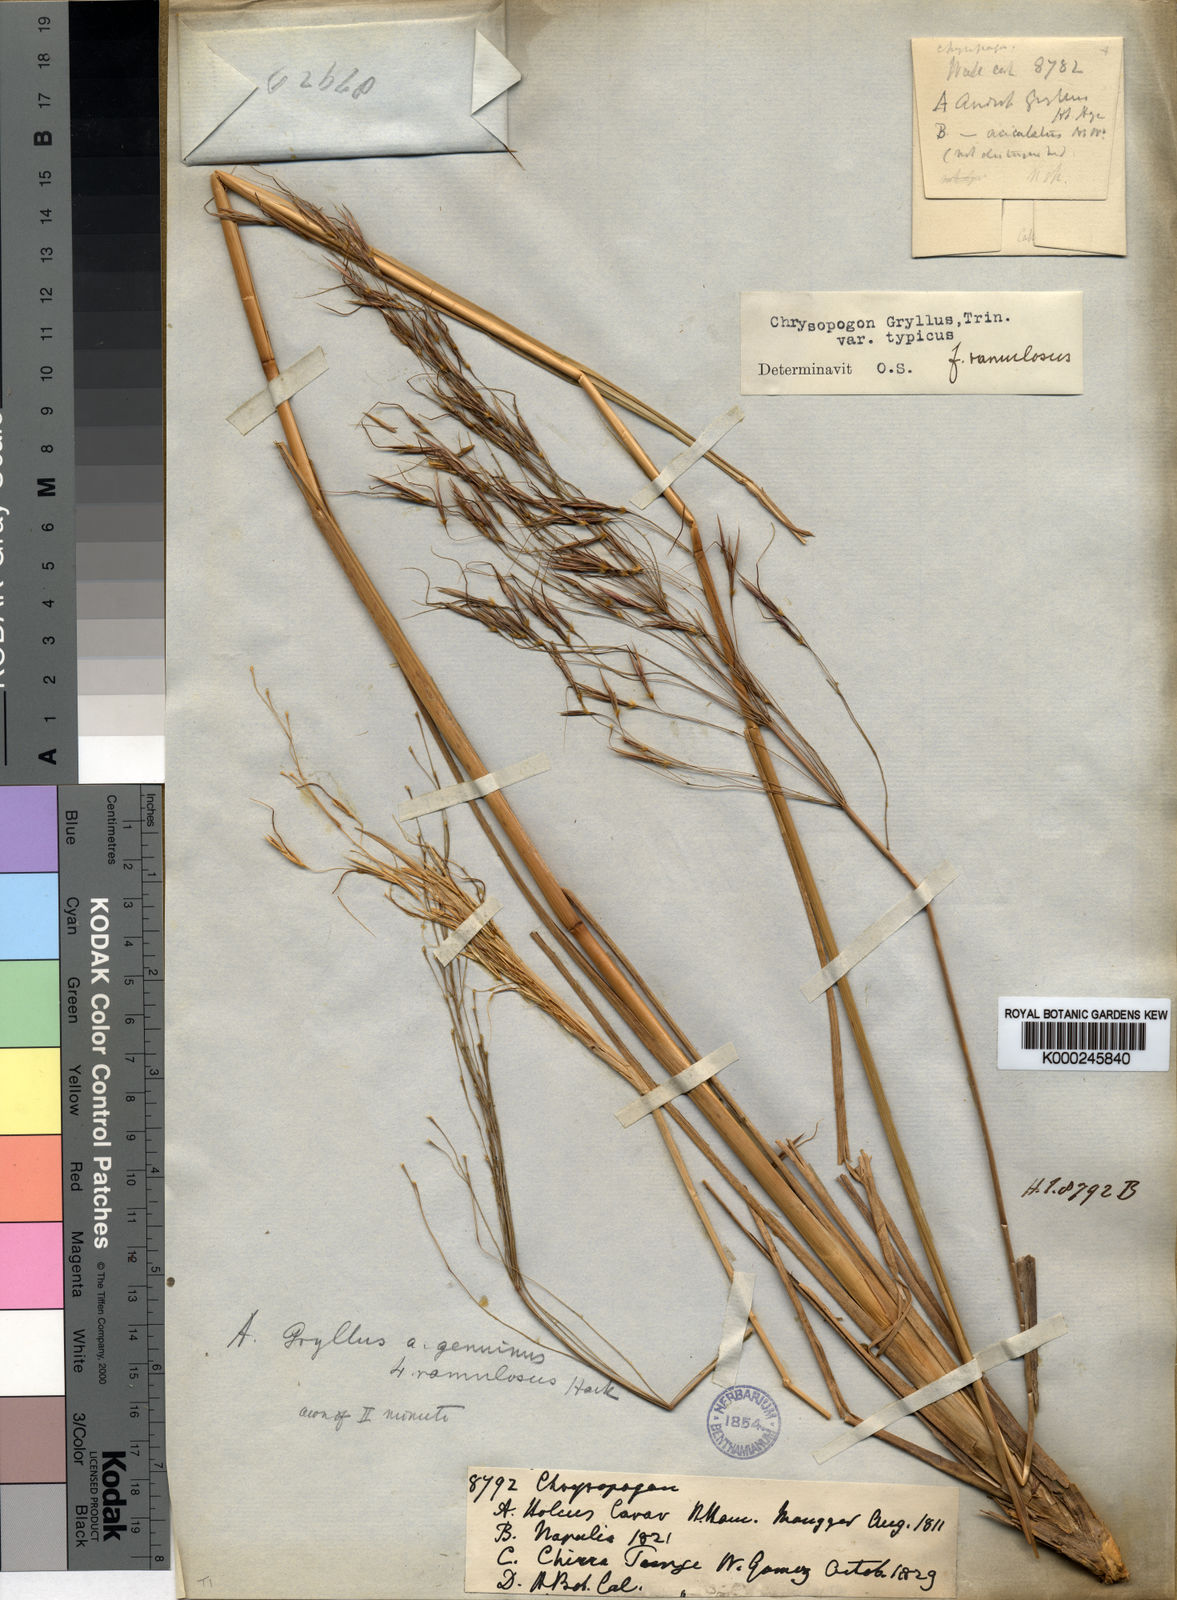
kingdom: Plantae
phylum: Tracheophyta
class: Liliopsida
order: Poales
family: Poaceae
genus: Chrysopogon
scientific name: Chrysopogon gryllus
